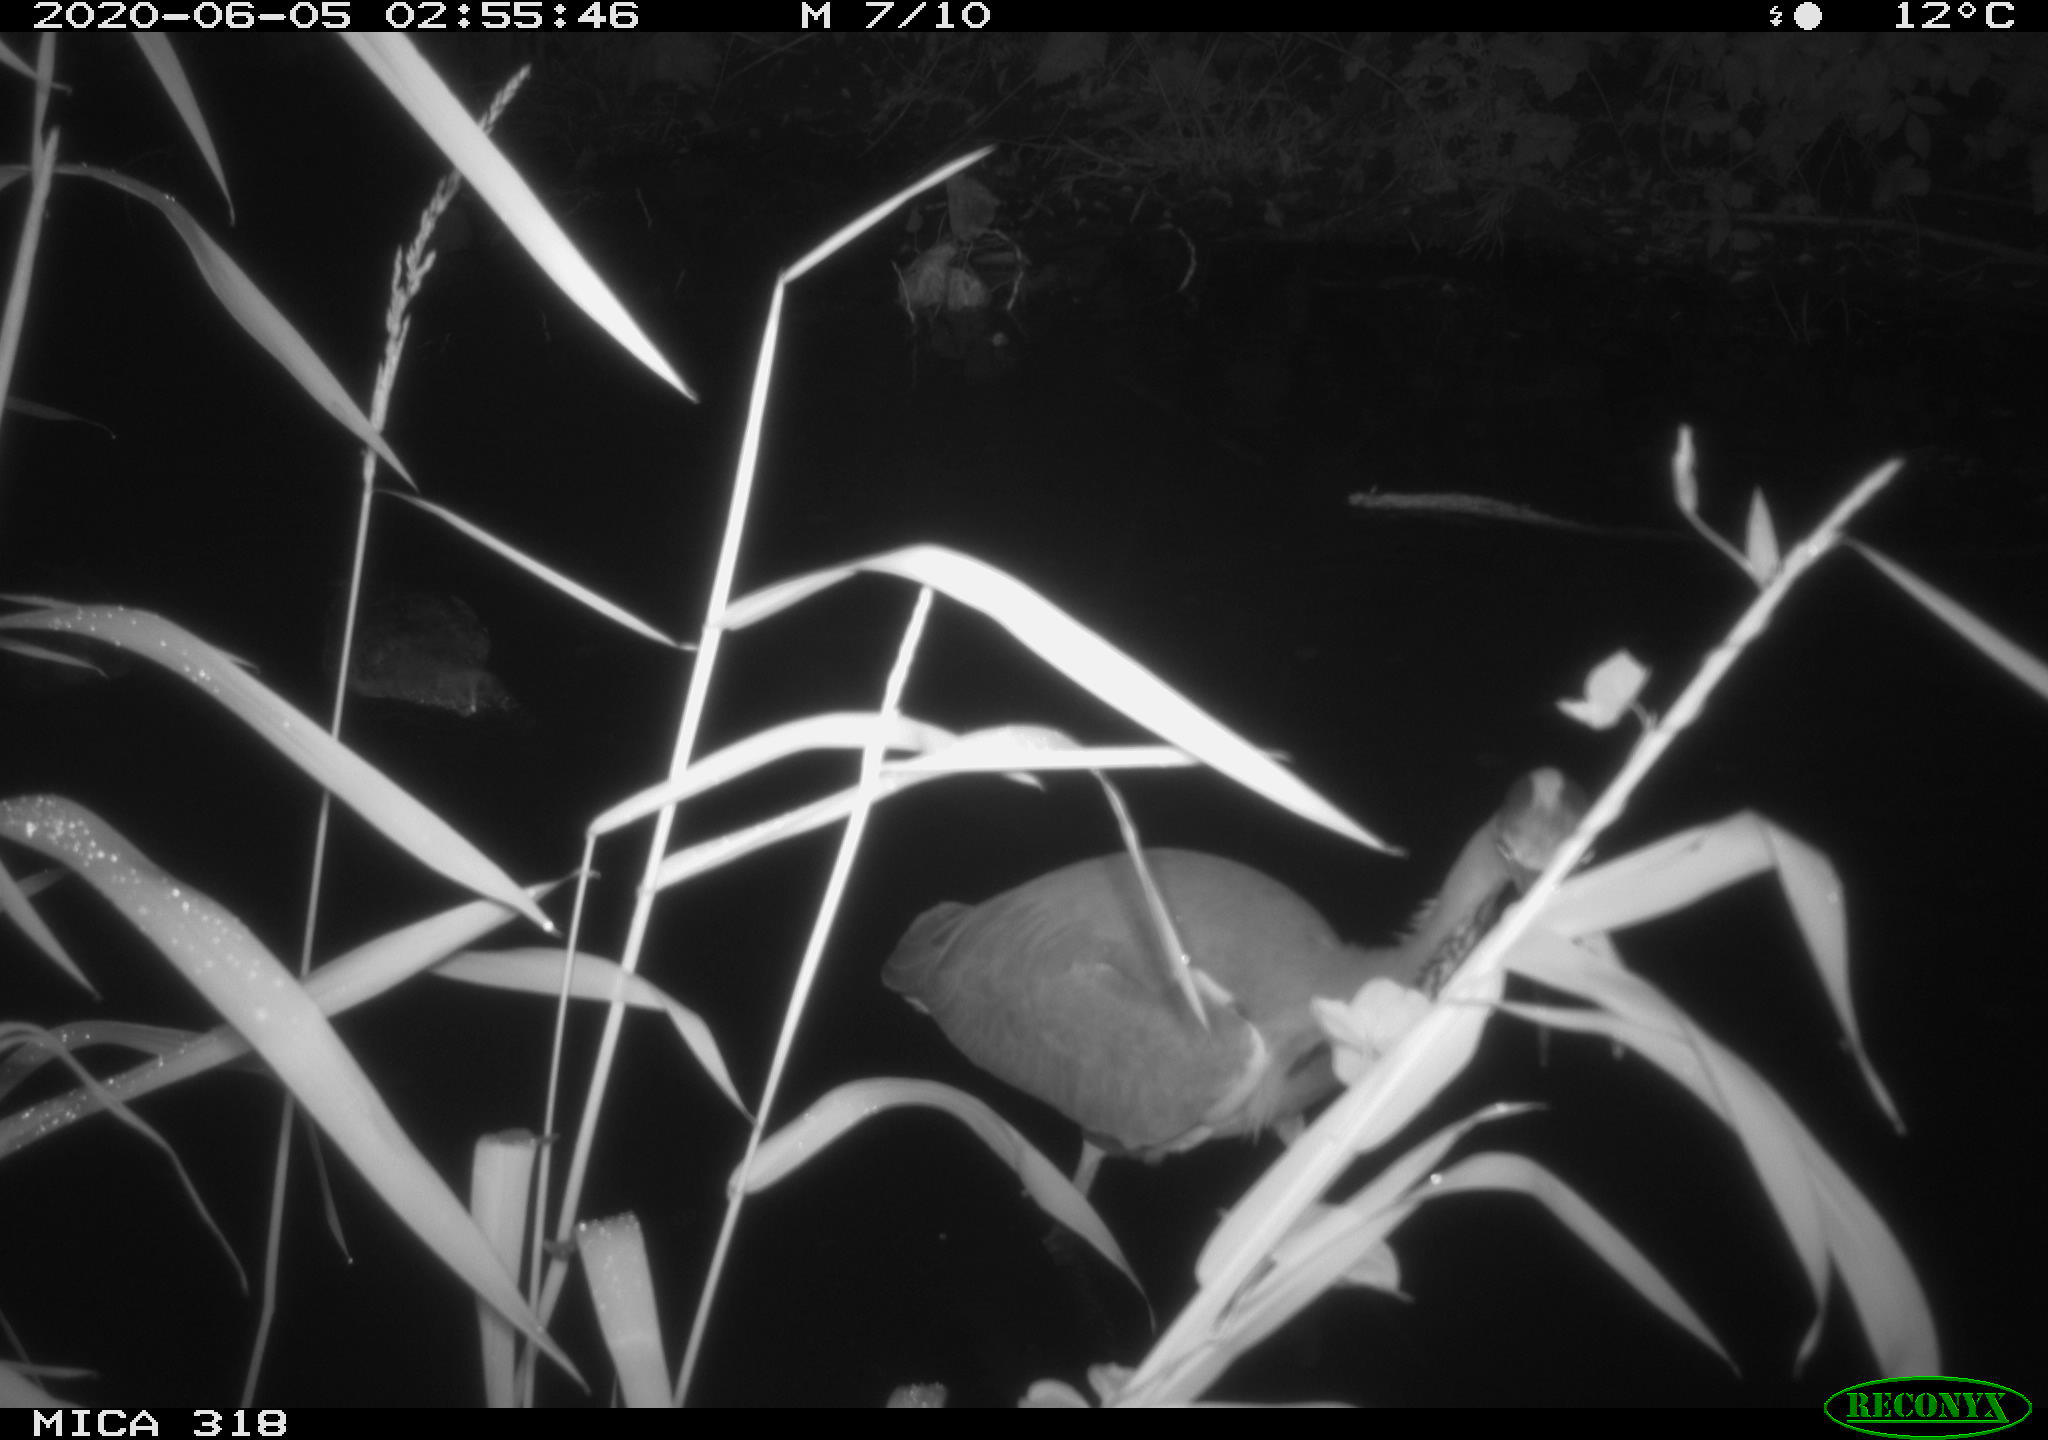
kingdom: Animalia
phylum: Chordata
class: Aves
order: Pelecaniformes
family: Ardeidae
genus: Ardea
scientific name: Ardea cinerea
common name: Grey heron
